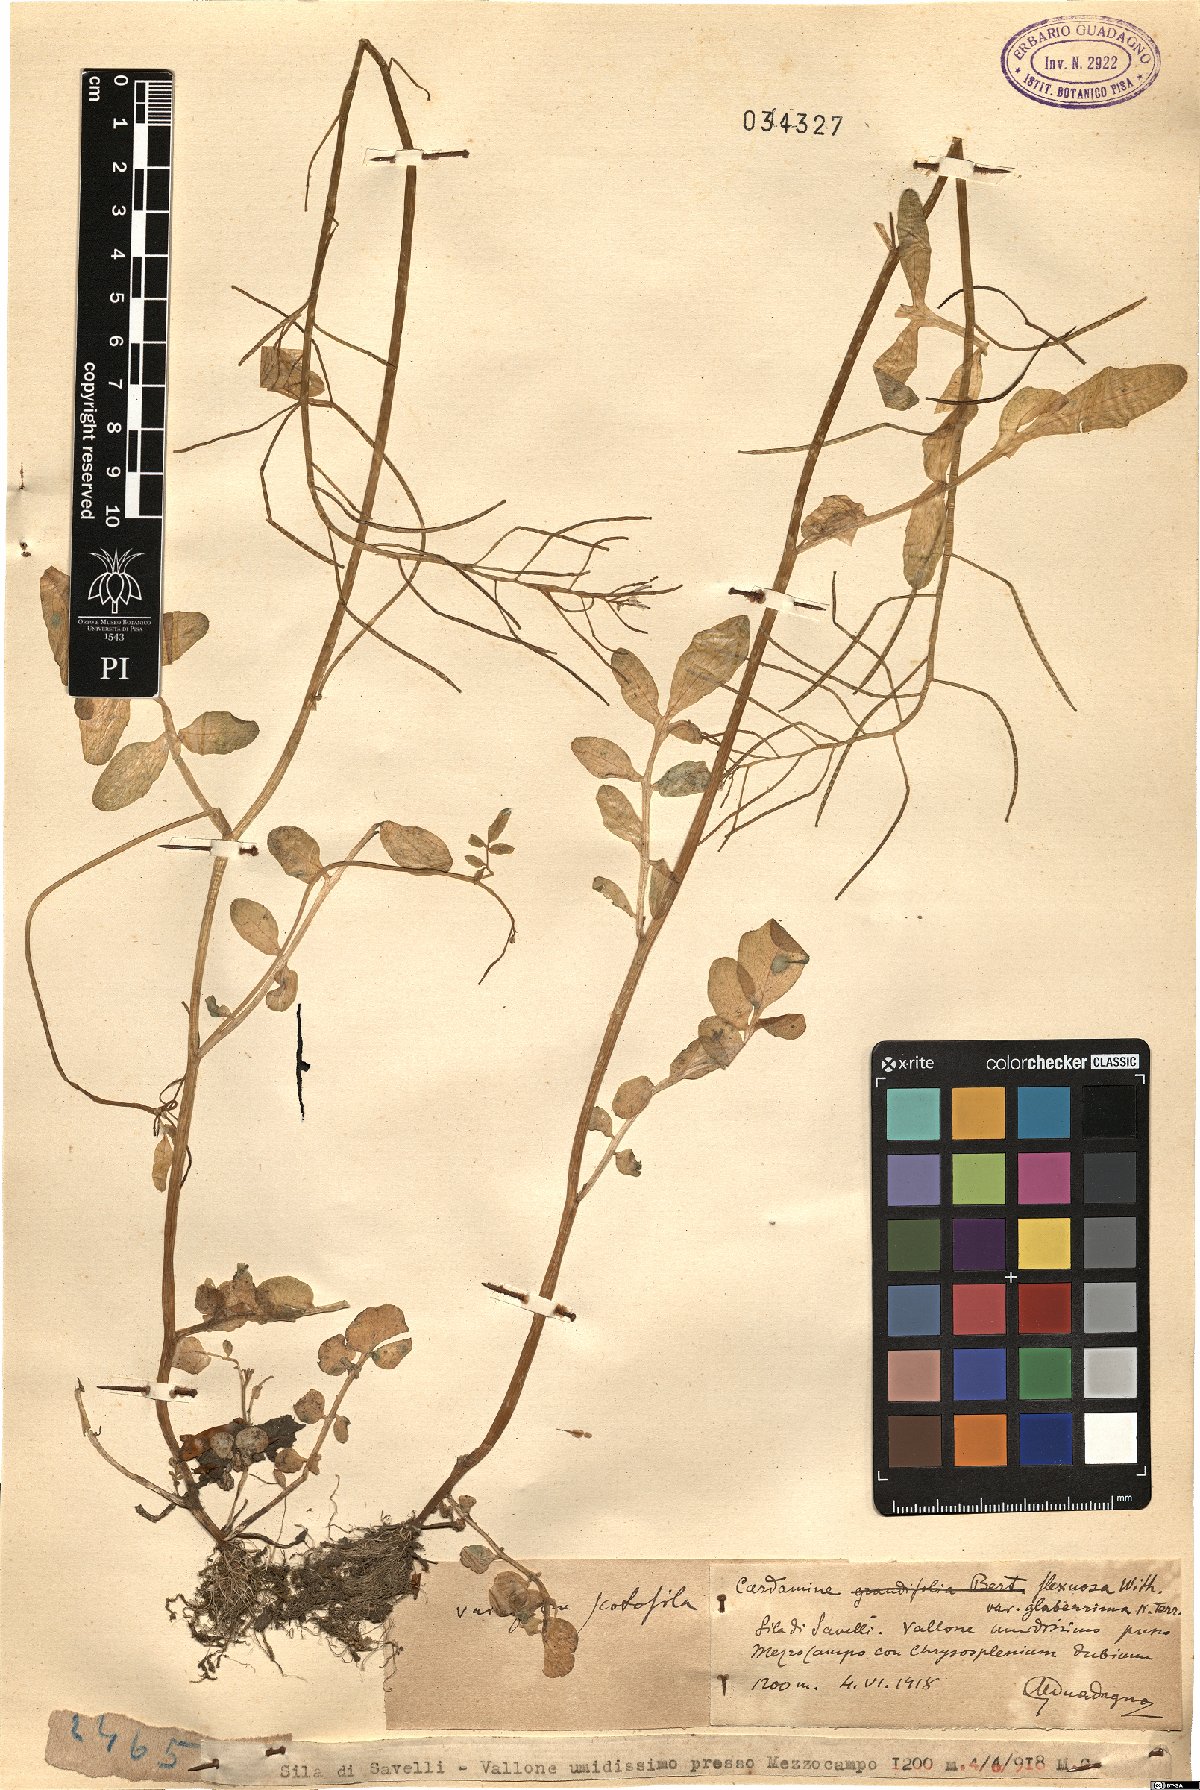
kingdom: Plantae
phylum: Tracheophyta
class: Magnoliopsida
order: Brassicales
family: Brassicaceae
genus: Cardamine
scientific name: Cardamine flexuosa
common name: Woodland bittercress
